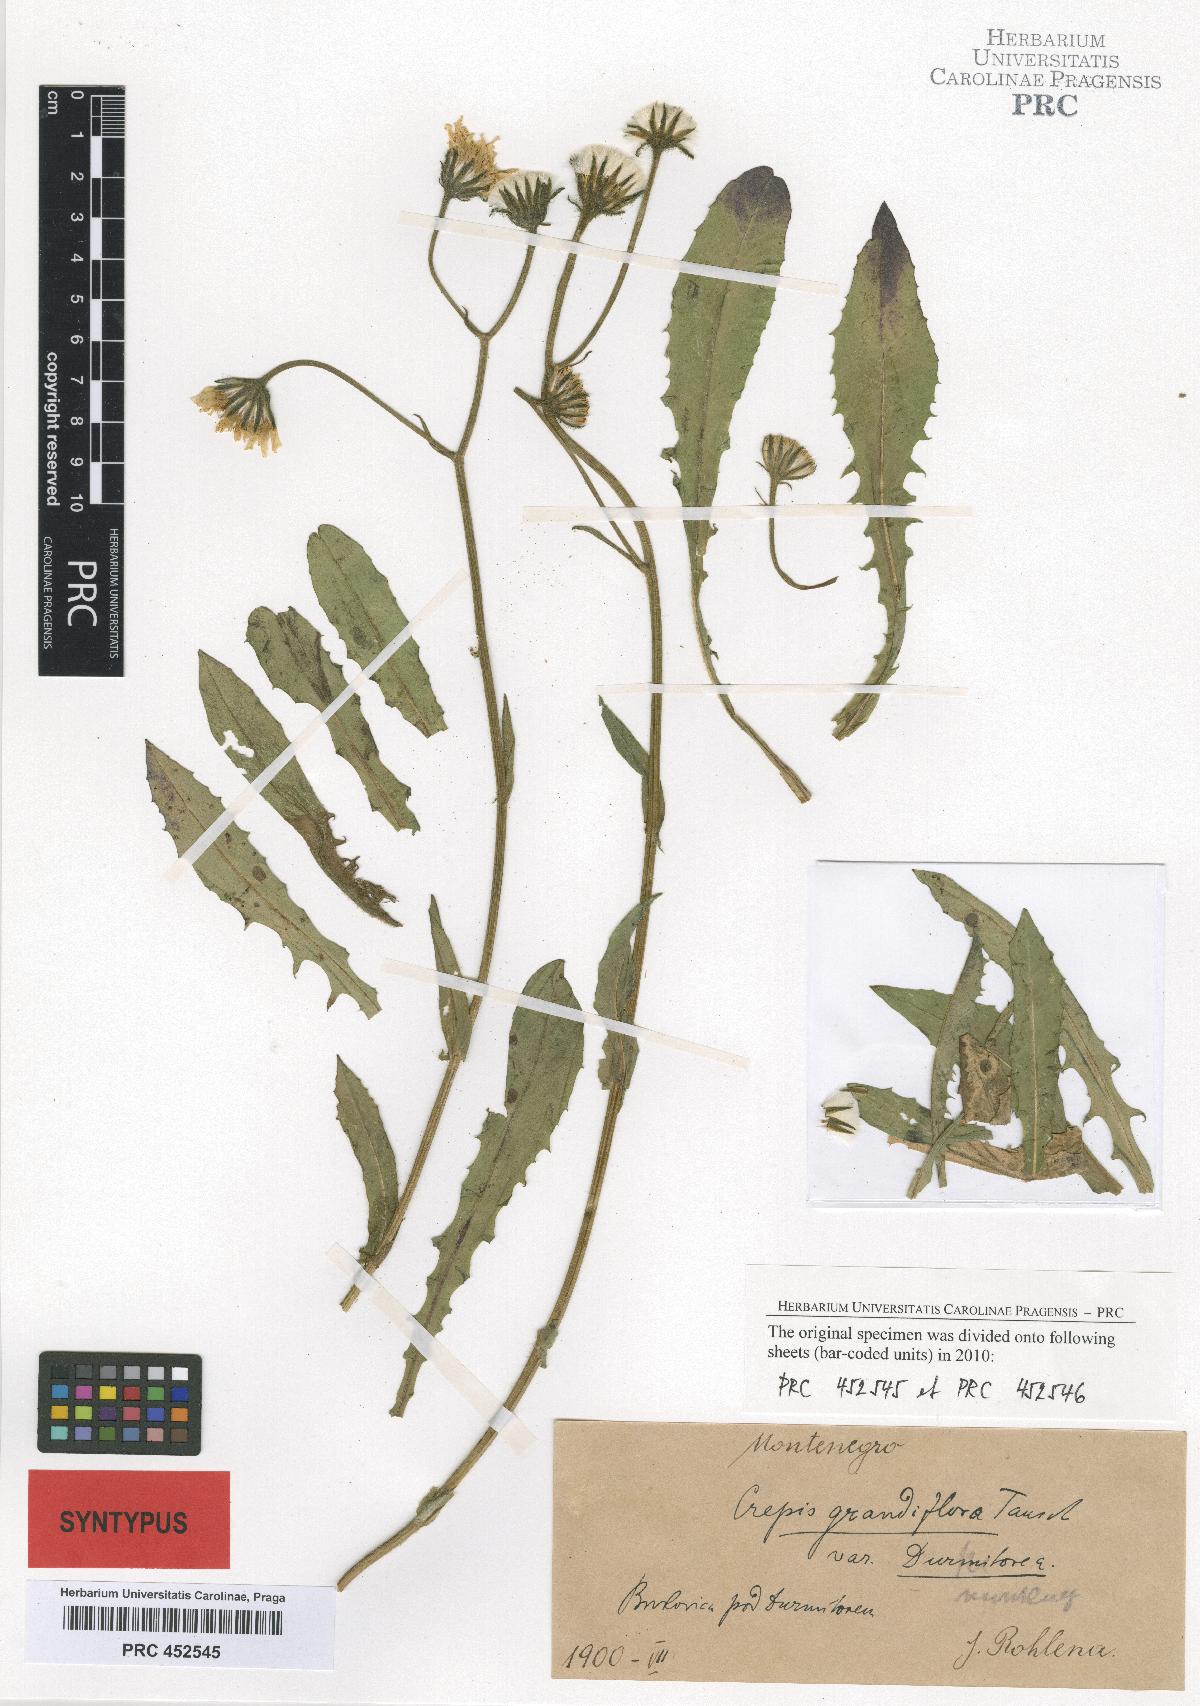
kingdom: Plantae
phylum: Tracheophyta
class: Magnoliopsida
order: Asterales
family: Asteraceae
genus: Crepis
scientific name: Crepis pyrenaica
